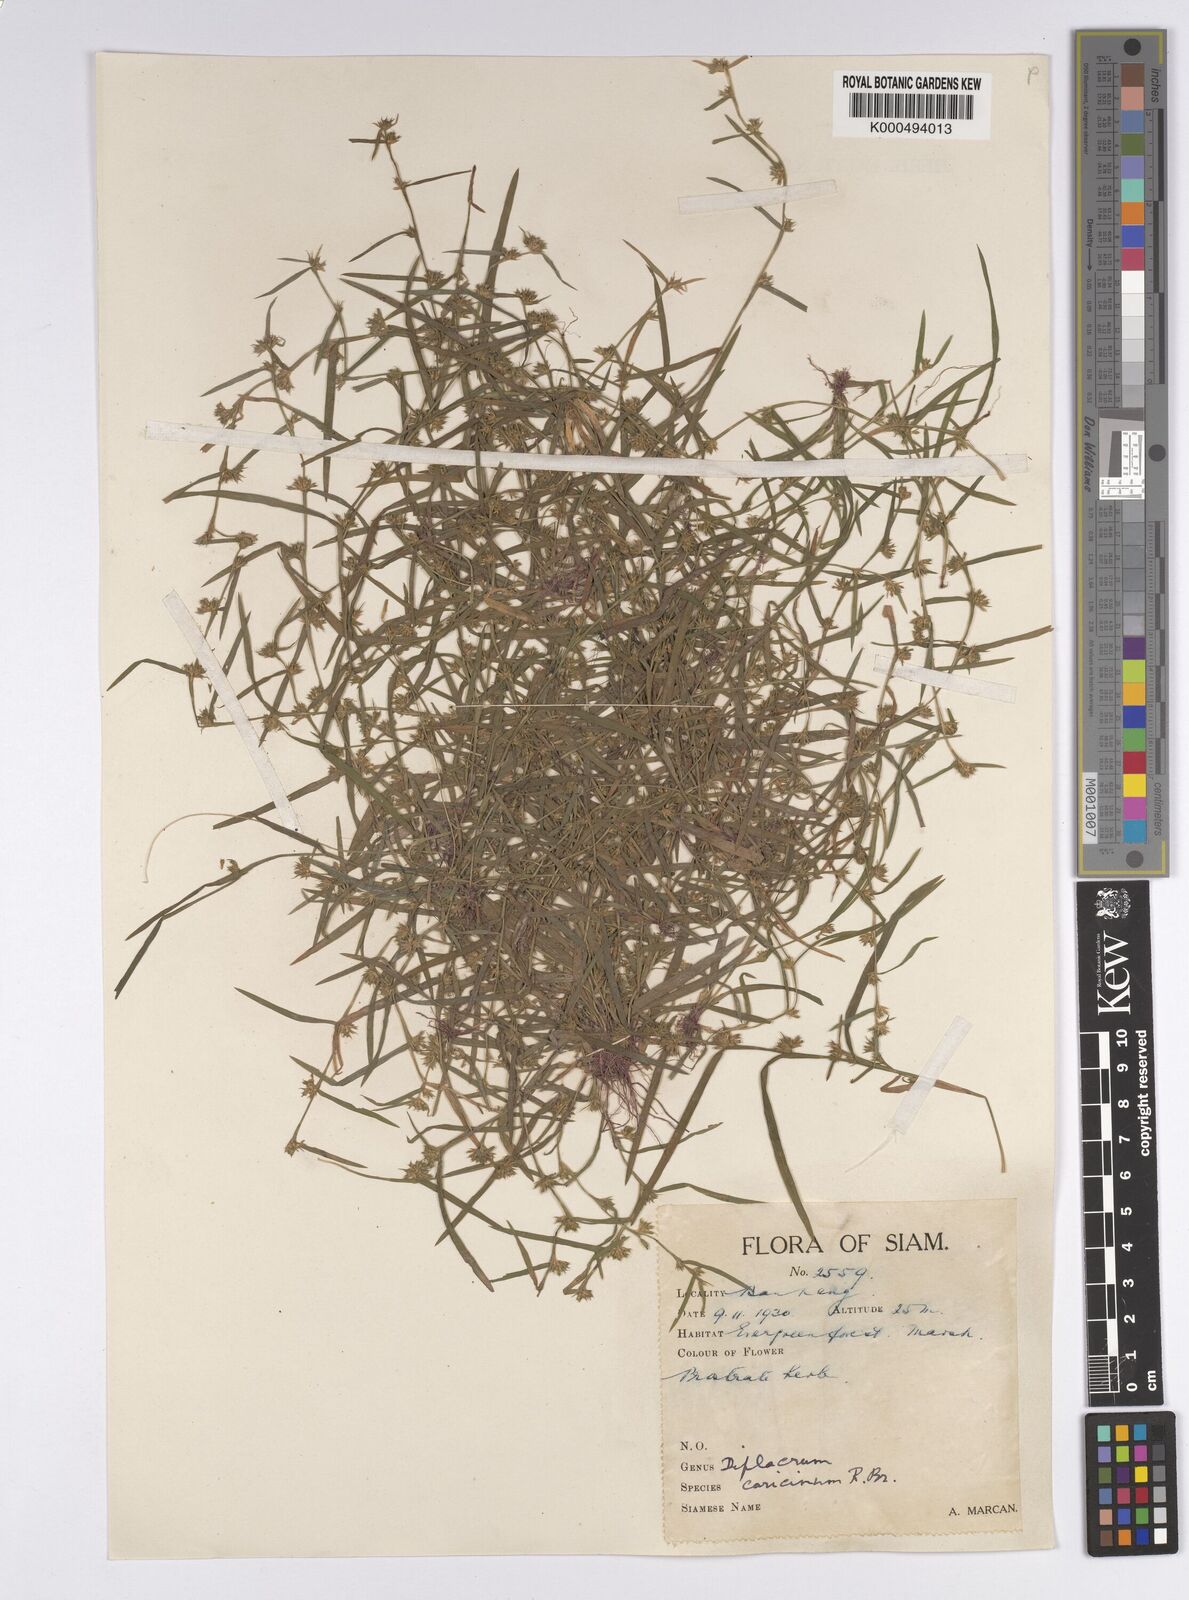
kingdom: Plantae
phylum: Tracheophyta
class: Liliopsida
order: Poales
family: Cyperaceae
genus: Diplacrum
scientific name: Diplacrum caricinum
